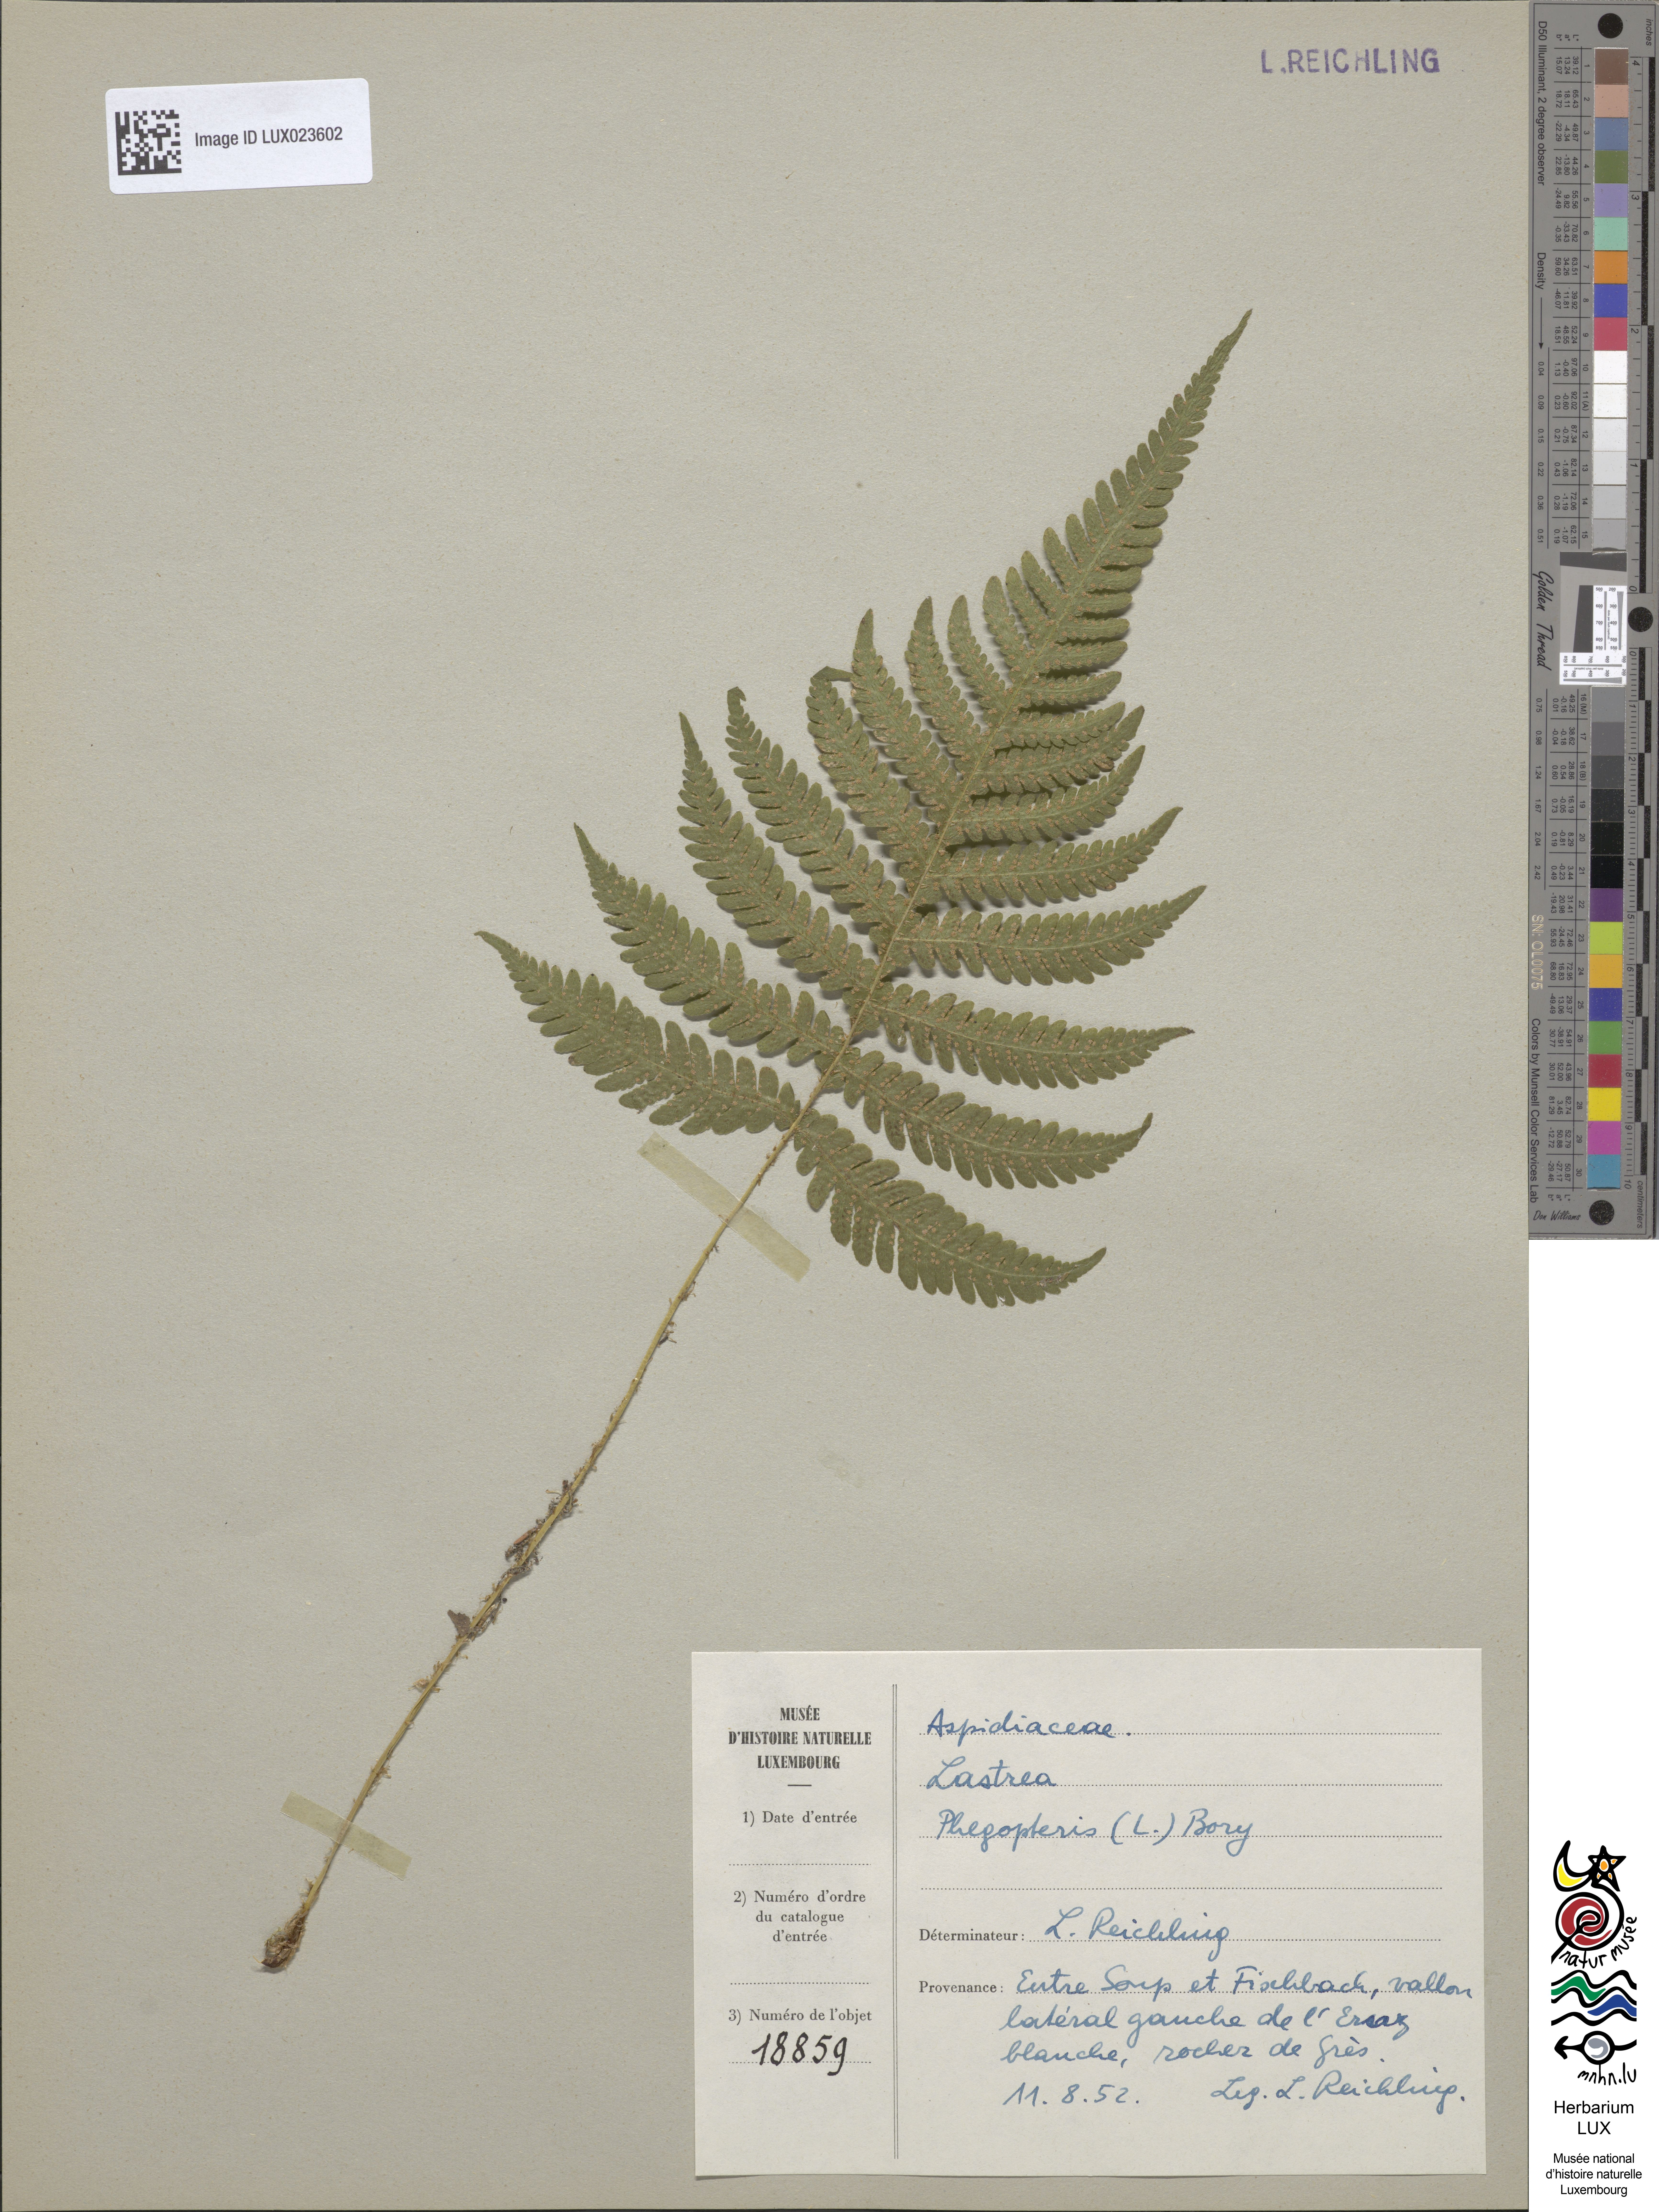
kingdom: Plantae
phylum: Tracheophyta
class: Polypodiopsida
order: Polypodiales
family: Thelypteridaceae
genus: Phegopteris
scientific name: Phegopteris connectilis
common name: Beech fern
